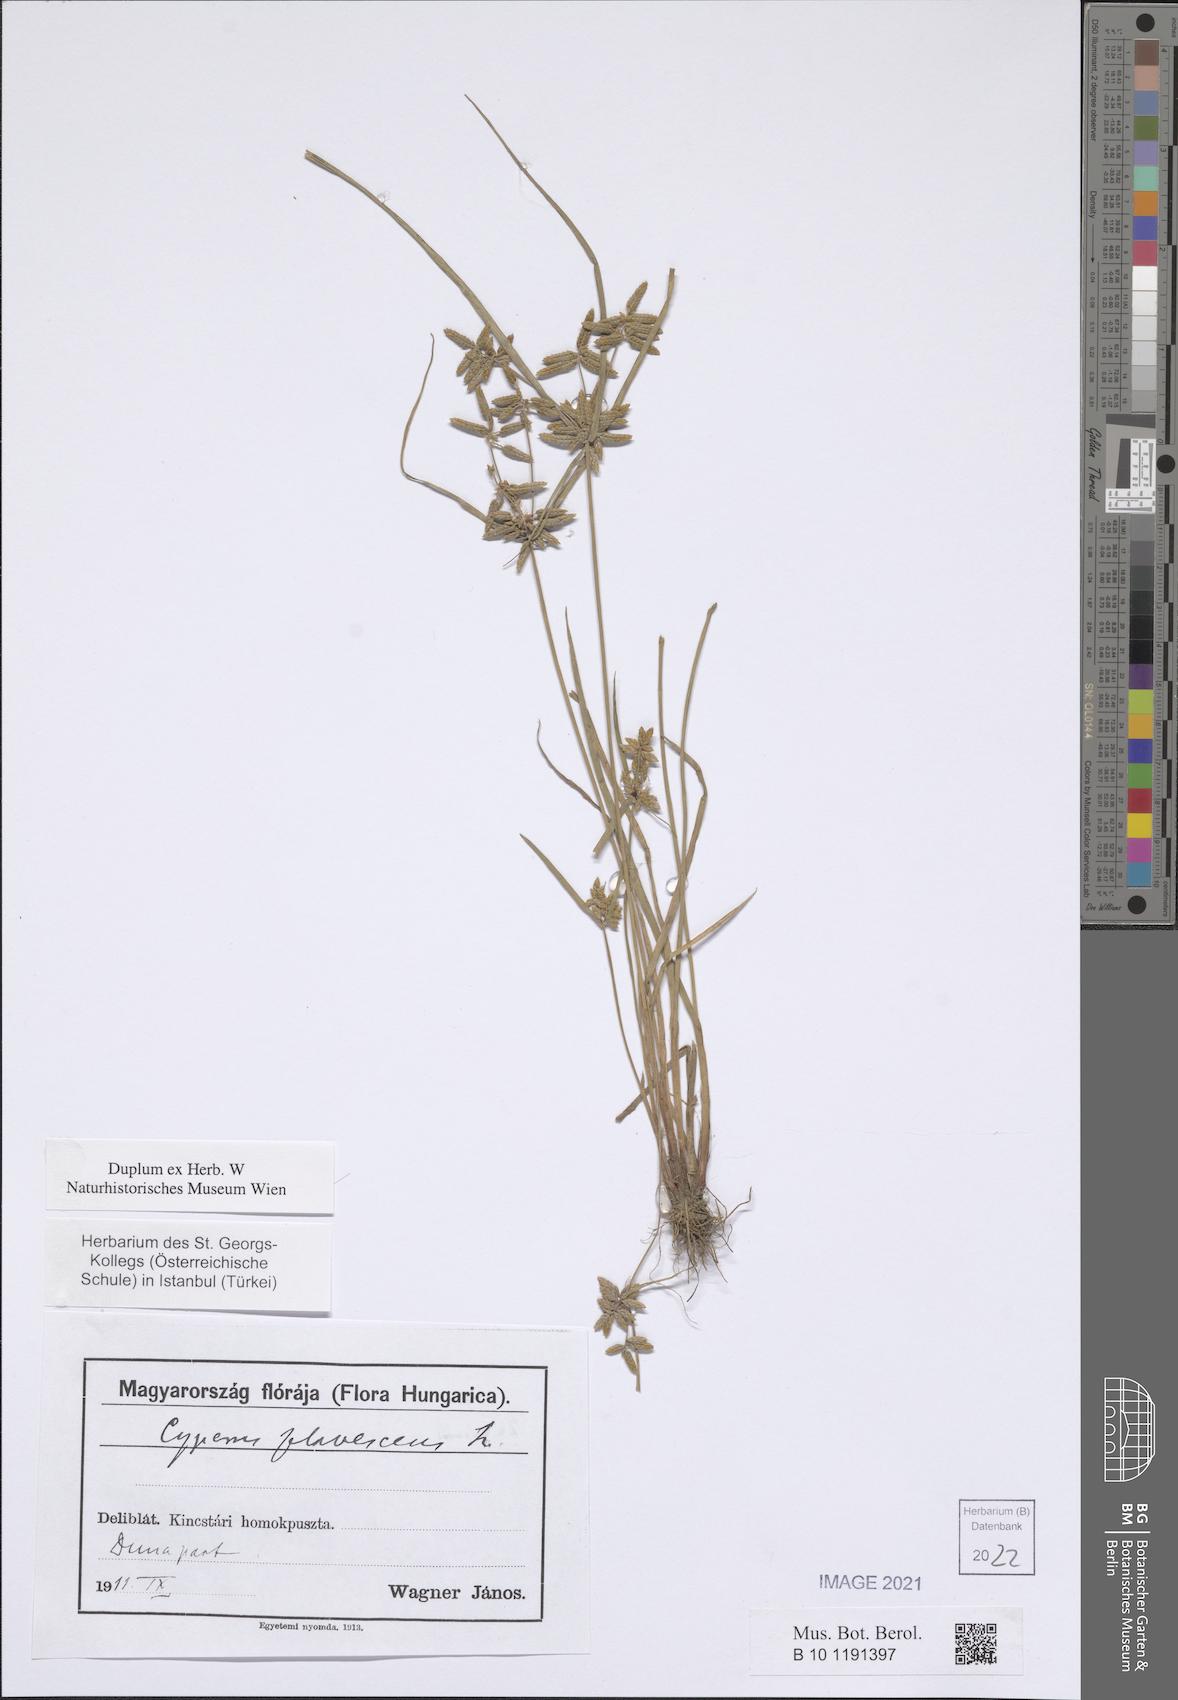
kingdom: Plantae
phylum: Tracheophyta
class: Liliopsida
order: Poales
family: Cyperaceae
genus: Cyperus
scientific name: Cyperus flavescens
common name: Yellow galingale
